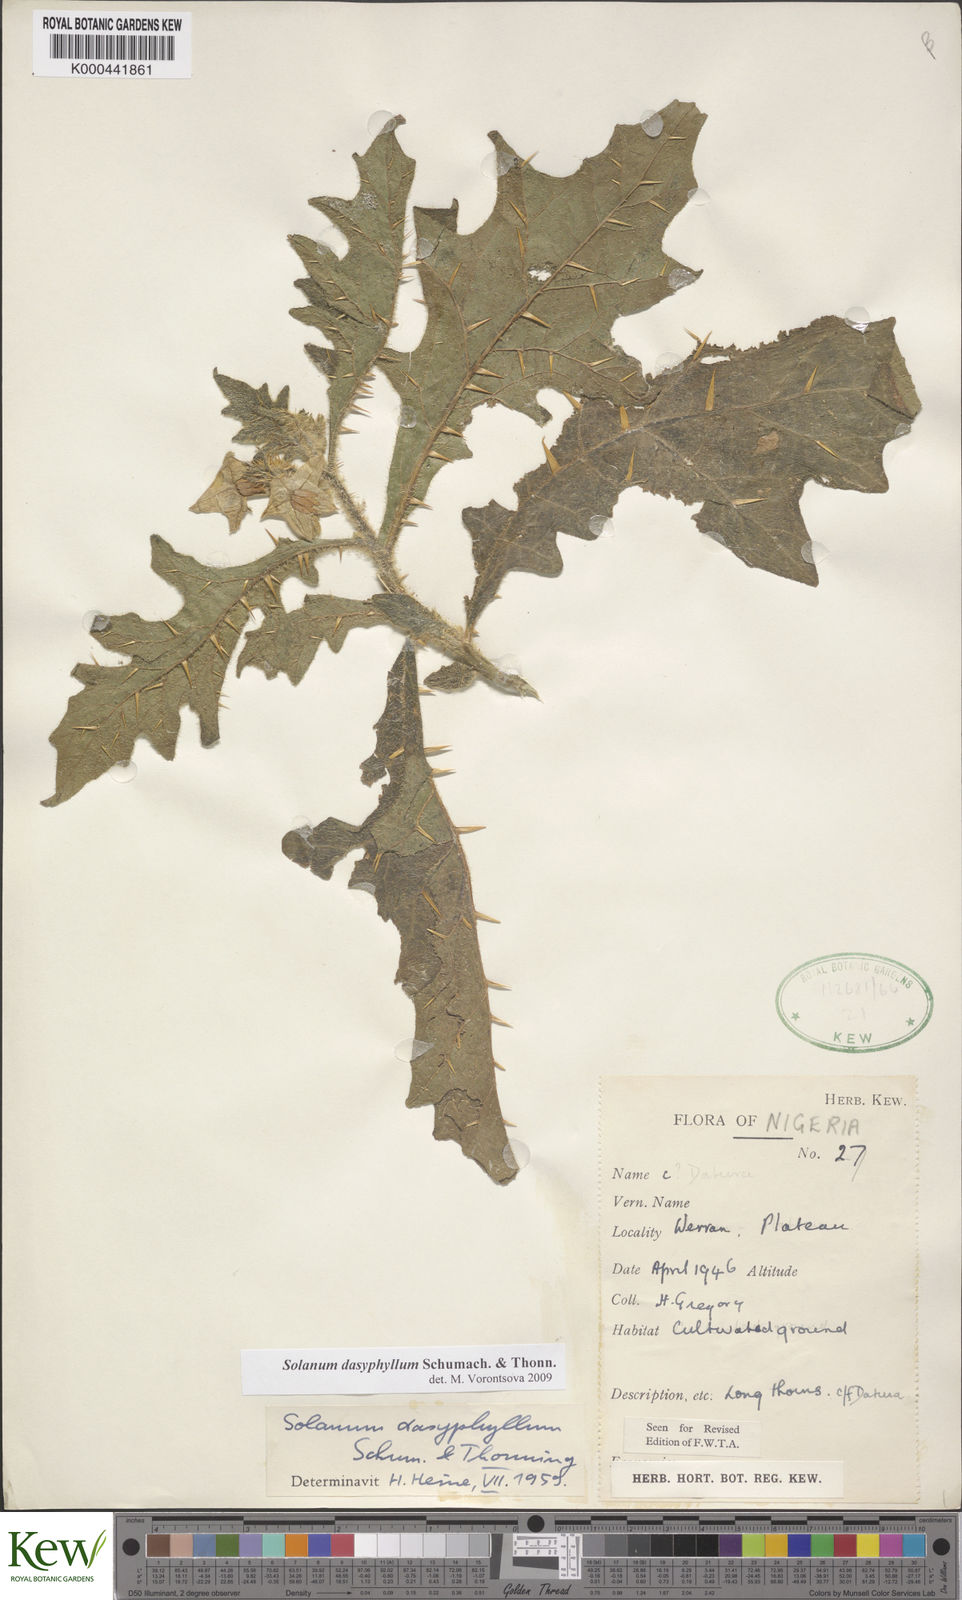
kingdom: Plantae
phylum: Tracheophyta
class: Magnoliopsida
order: Solanales
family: Solanaceae
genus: Solanum
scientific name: Solanum dasyphyllum
